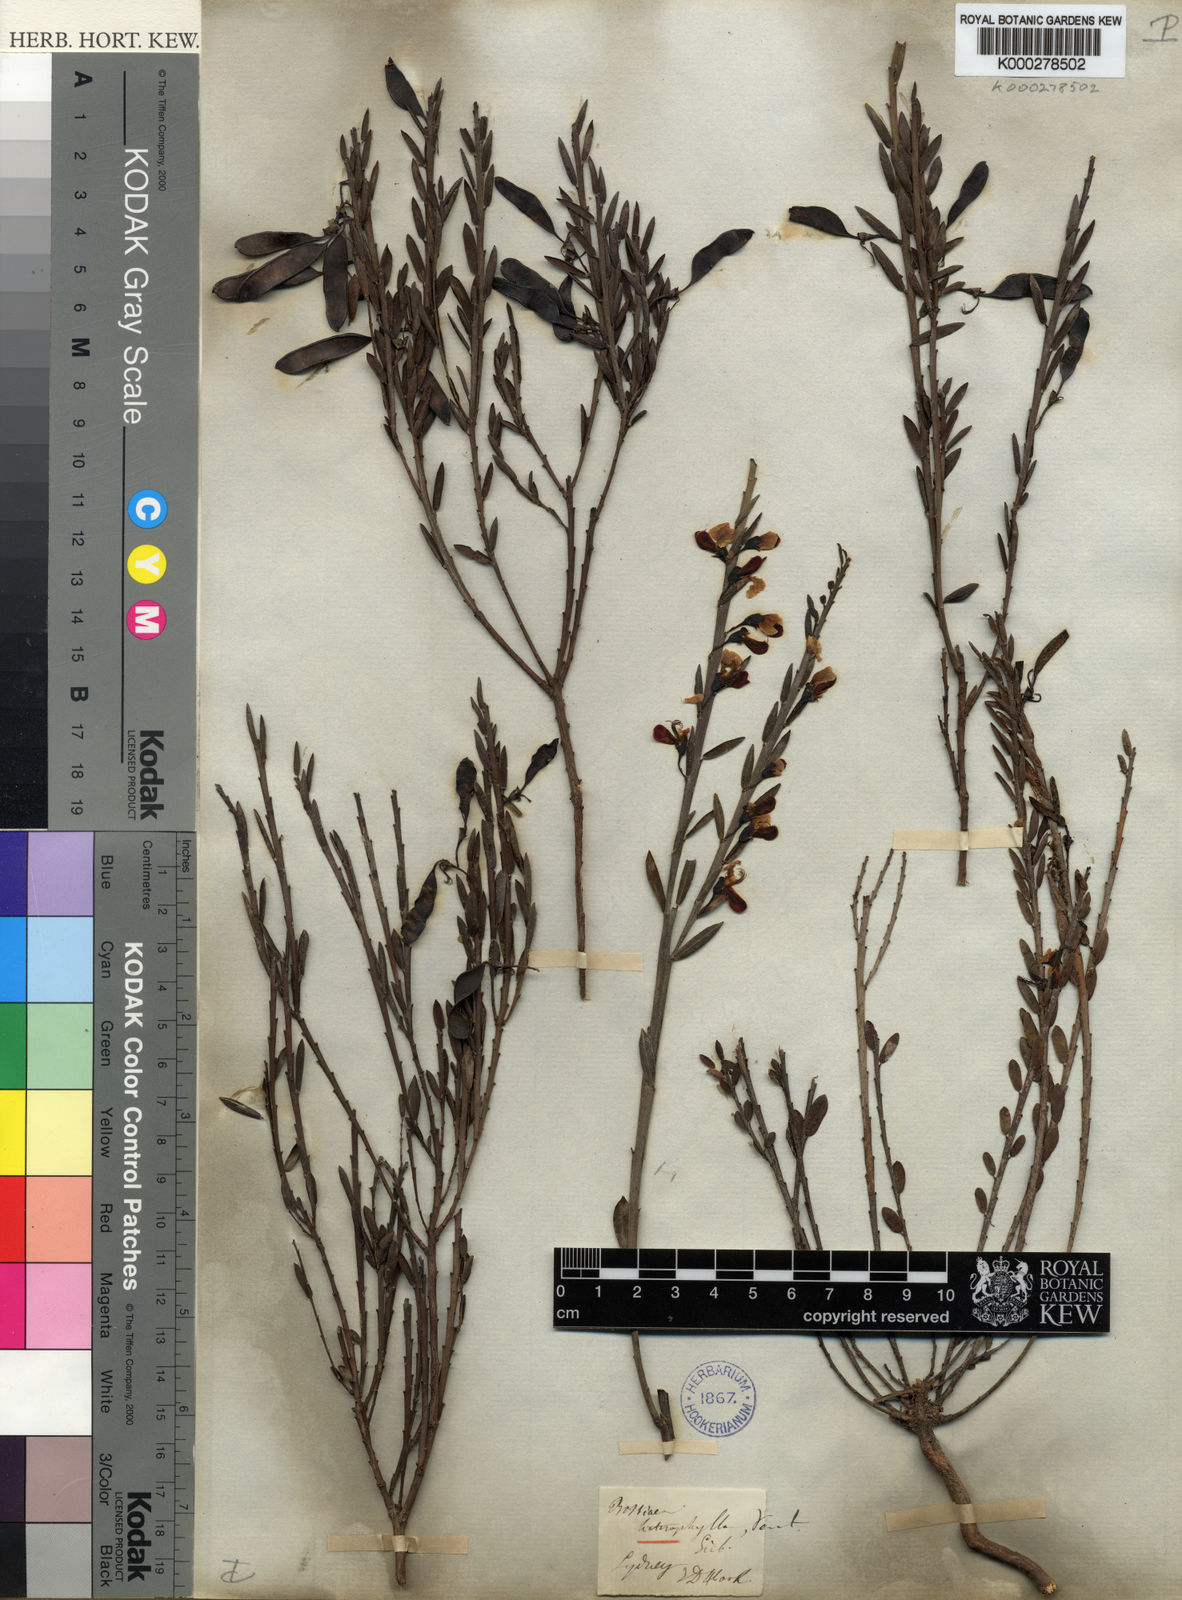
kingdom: Plantae
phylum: Tracheophyta
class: Magnoliopsida
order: Fabales
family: Fabaceae
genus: Bossiaea
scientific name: Bossiaea heterophylla
